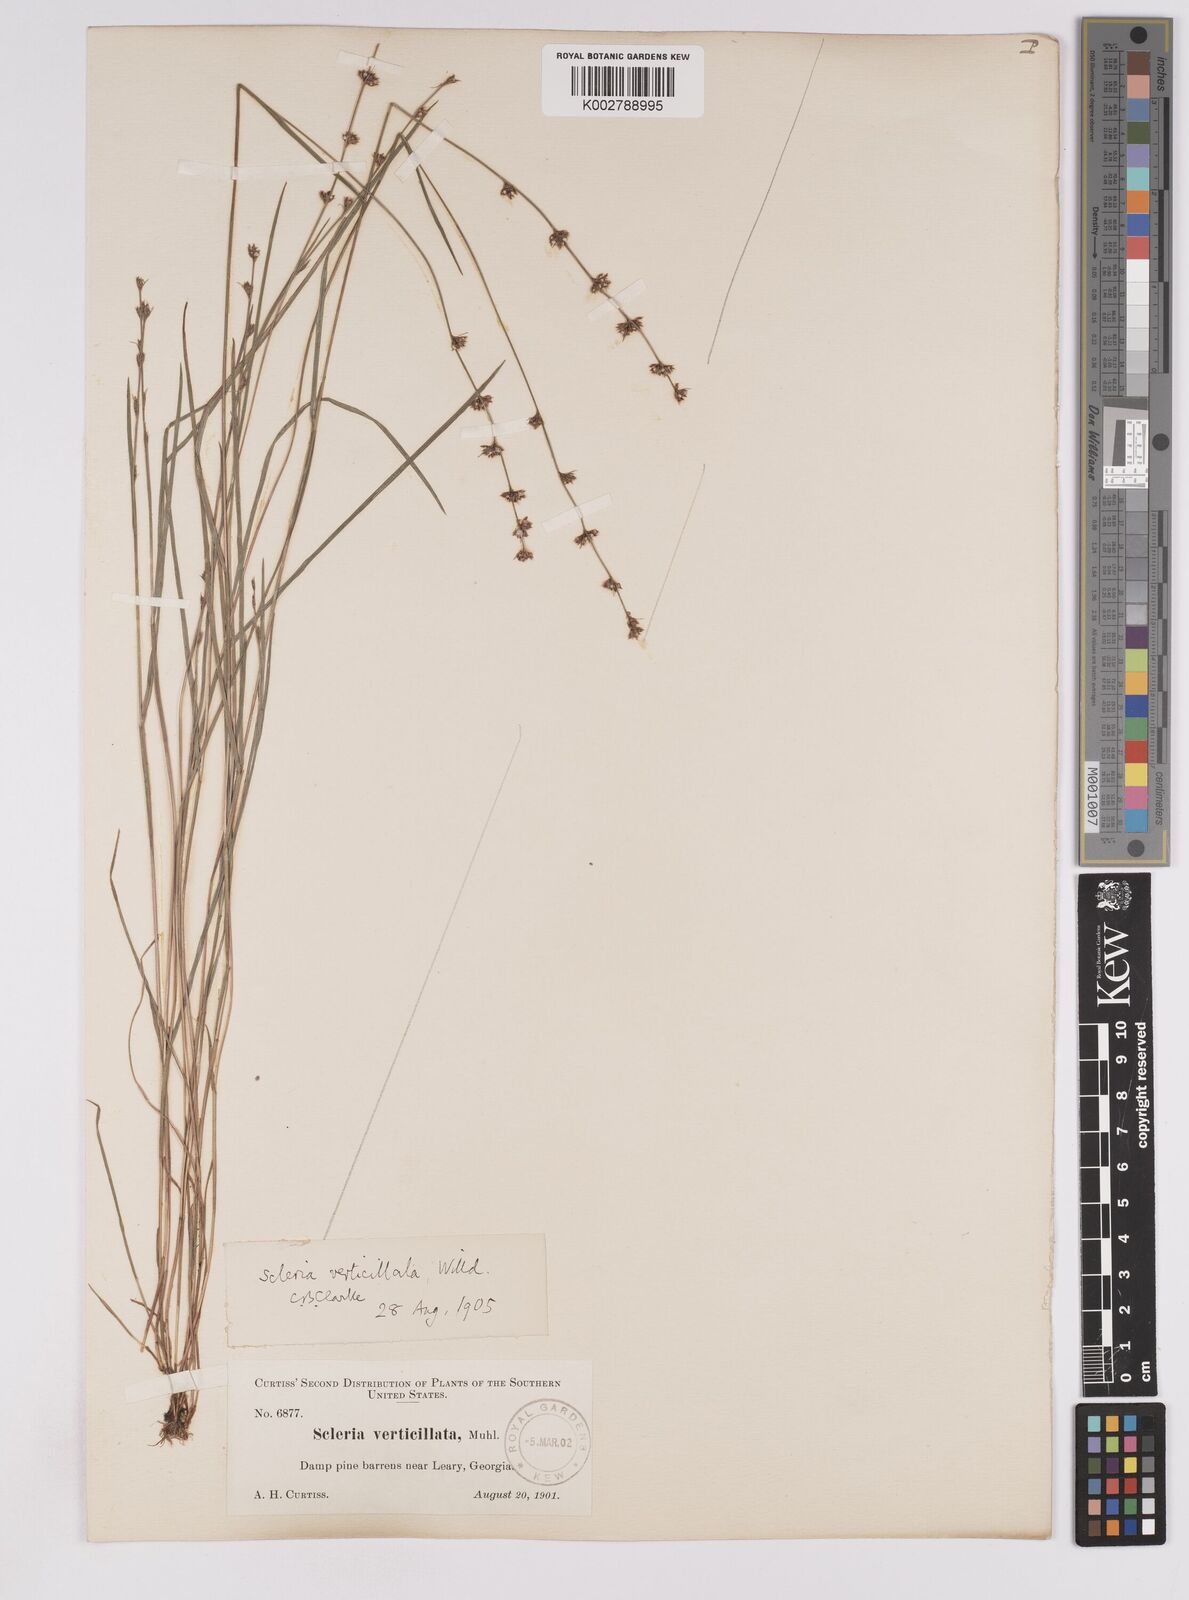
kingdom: Plantae
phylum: Tracheophyta
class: Liliopsida
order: Poales
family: Cyperaceae
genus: Scleria
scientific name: Scleria verticillata
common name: Low nutrush
